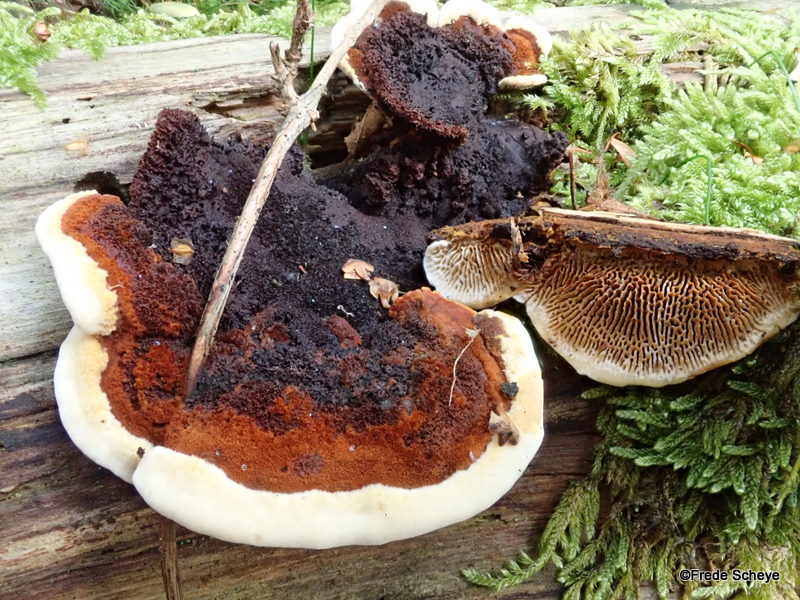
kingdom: Fungi
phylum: Basidiomycota
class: Agaricomycetes
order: Gloeophyllales
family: Gloeophyllaceae
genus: Gloeophyllum
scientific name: Gloeophyllum sepiarium
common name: fyrre-korkhat
